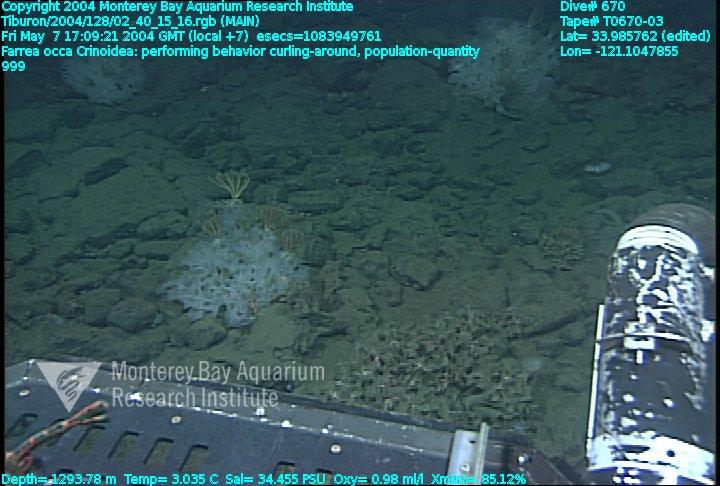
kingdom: Animalia
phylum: Porifera
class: Hexactinellida
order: Sceptrulophora
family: Farreidae
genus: Farrea
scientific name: Farrea occa
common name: Reversed glass sponge
